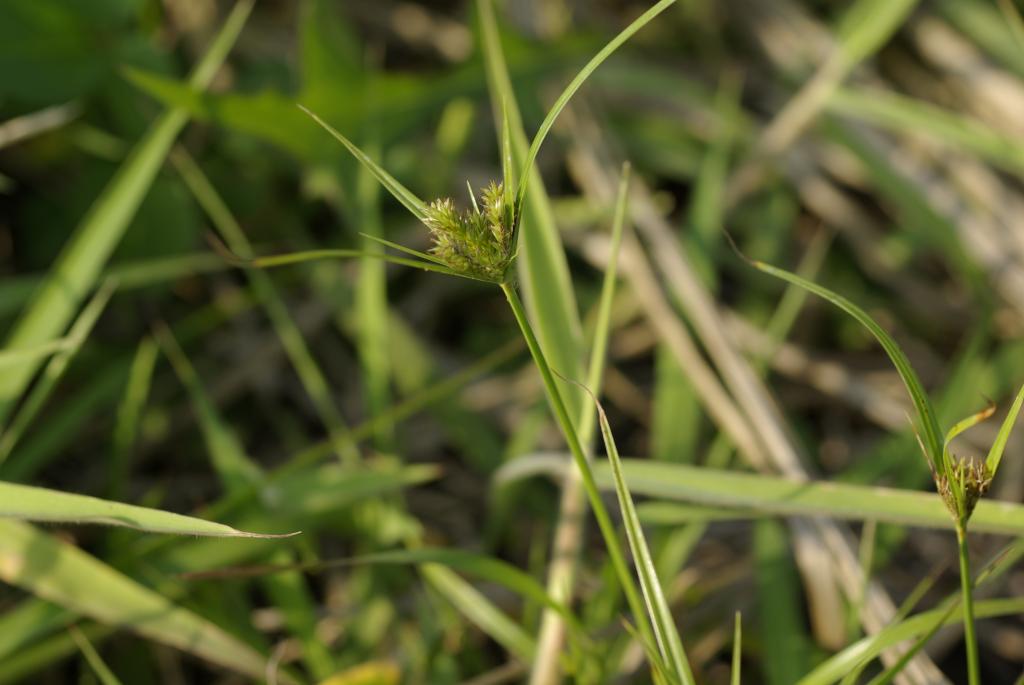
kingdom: Plantae
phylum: Tracheophyta
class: Liliopsida
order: Poales
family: Cyperaceae
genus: Cyperus
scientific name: Cyperus cyperoides
